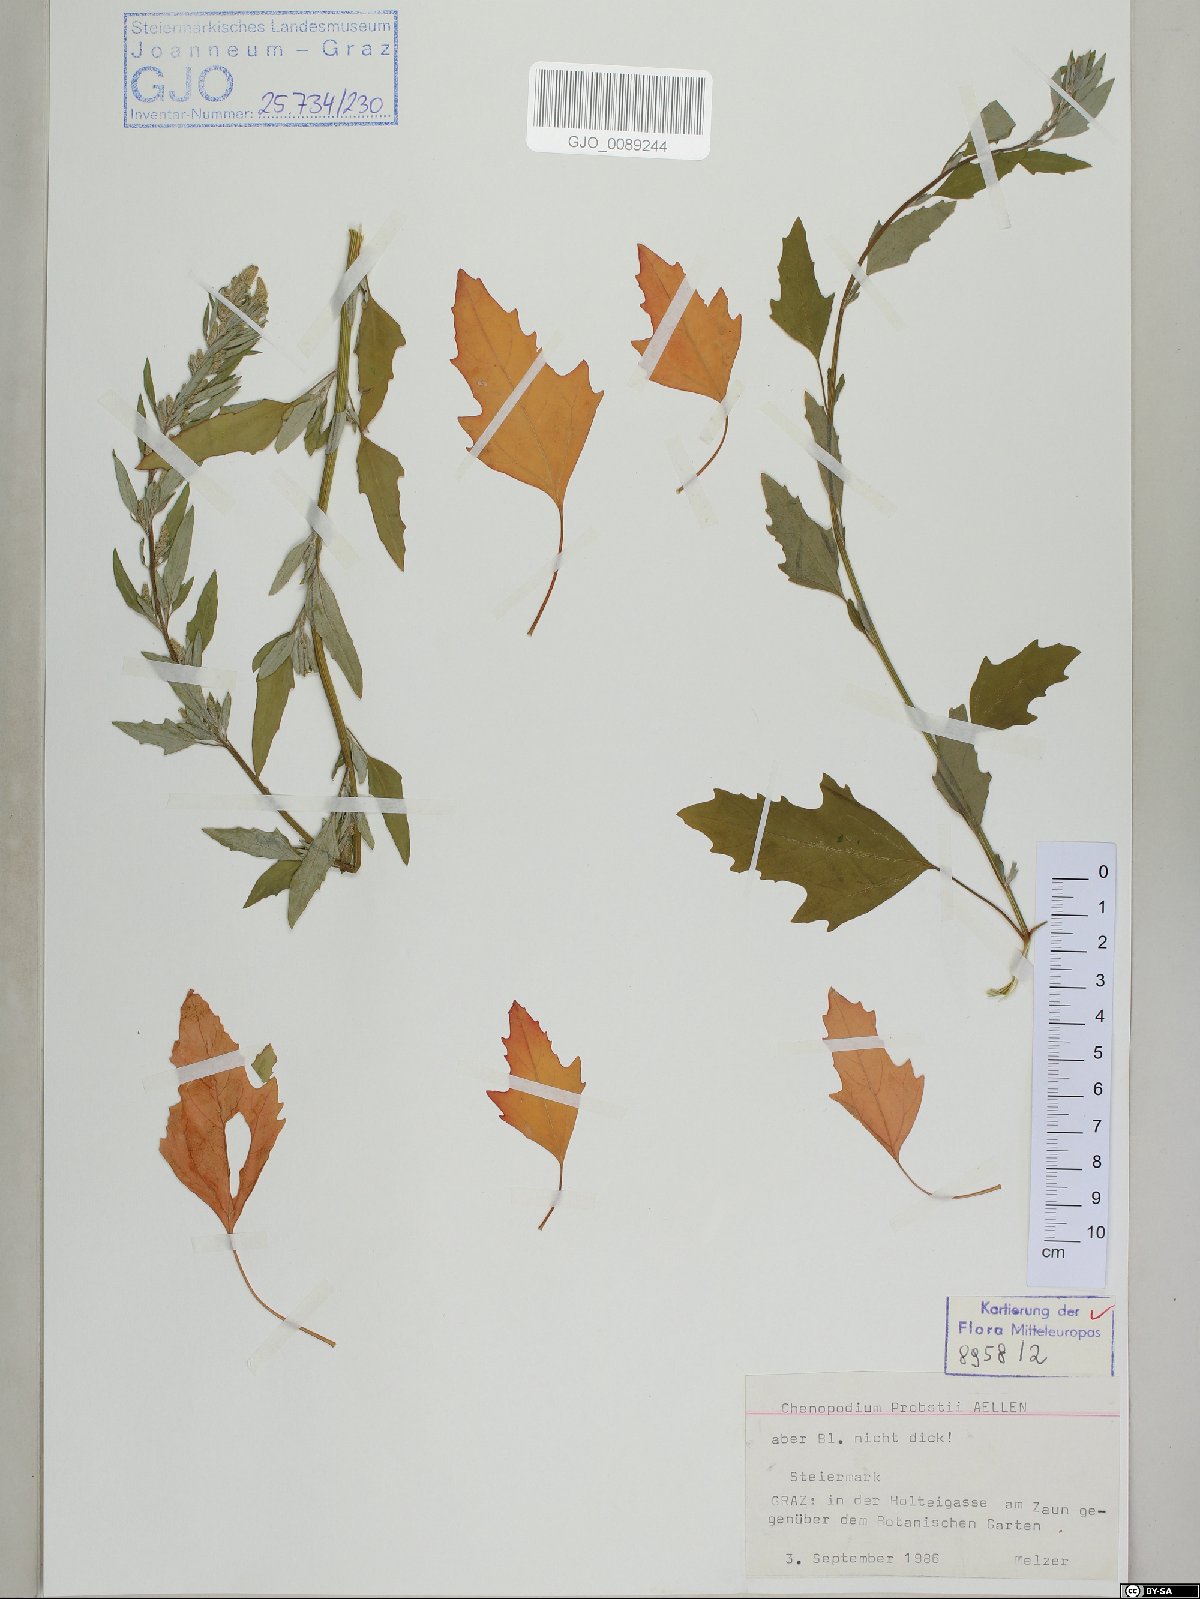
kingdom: Plantae
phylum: Tracheophyta
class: Magnoliopsida
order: Caryophyllales
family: Amaranthaceae
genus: Chenopodium
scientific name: Chenopodium probstii
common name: Probst's goosefoot
